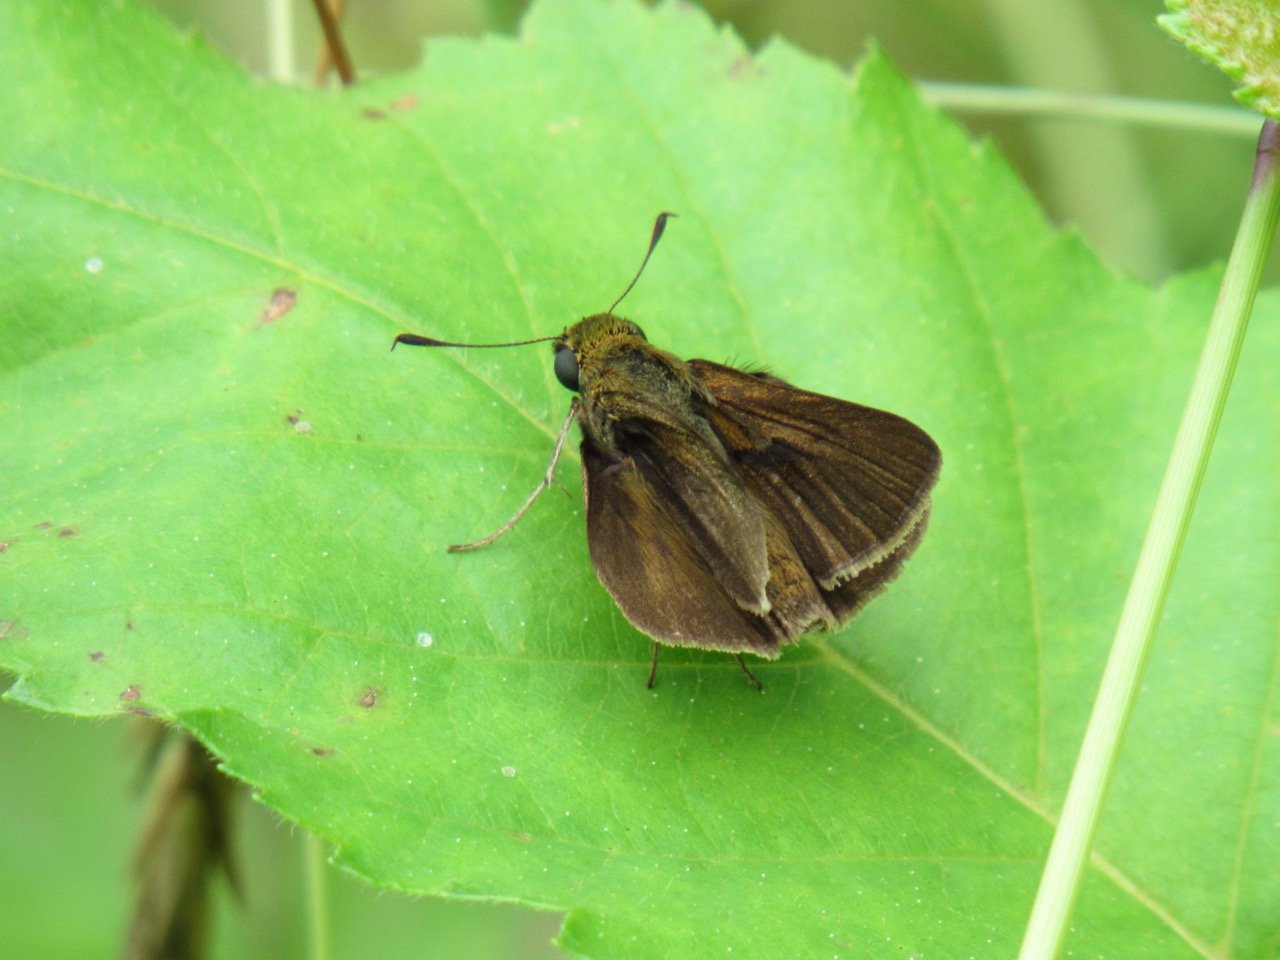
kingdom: Animalia
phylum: Arthropoda
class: Insecta
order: Lepidoptera
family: Hesperiidae
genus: Euphyes
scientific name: Euphyes vestris
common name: Dun Skipper
